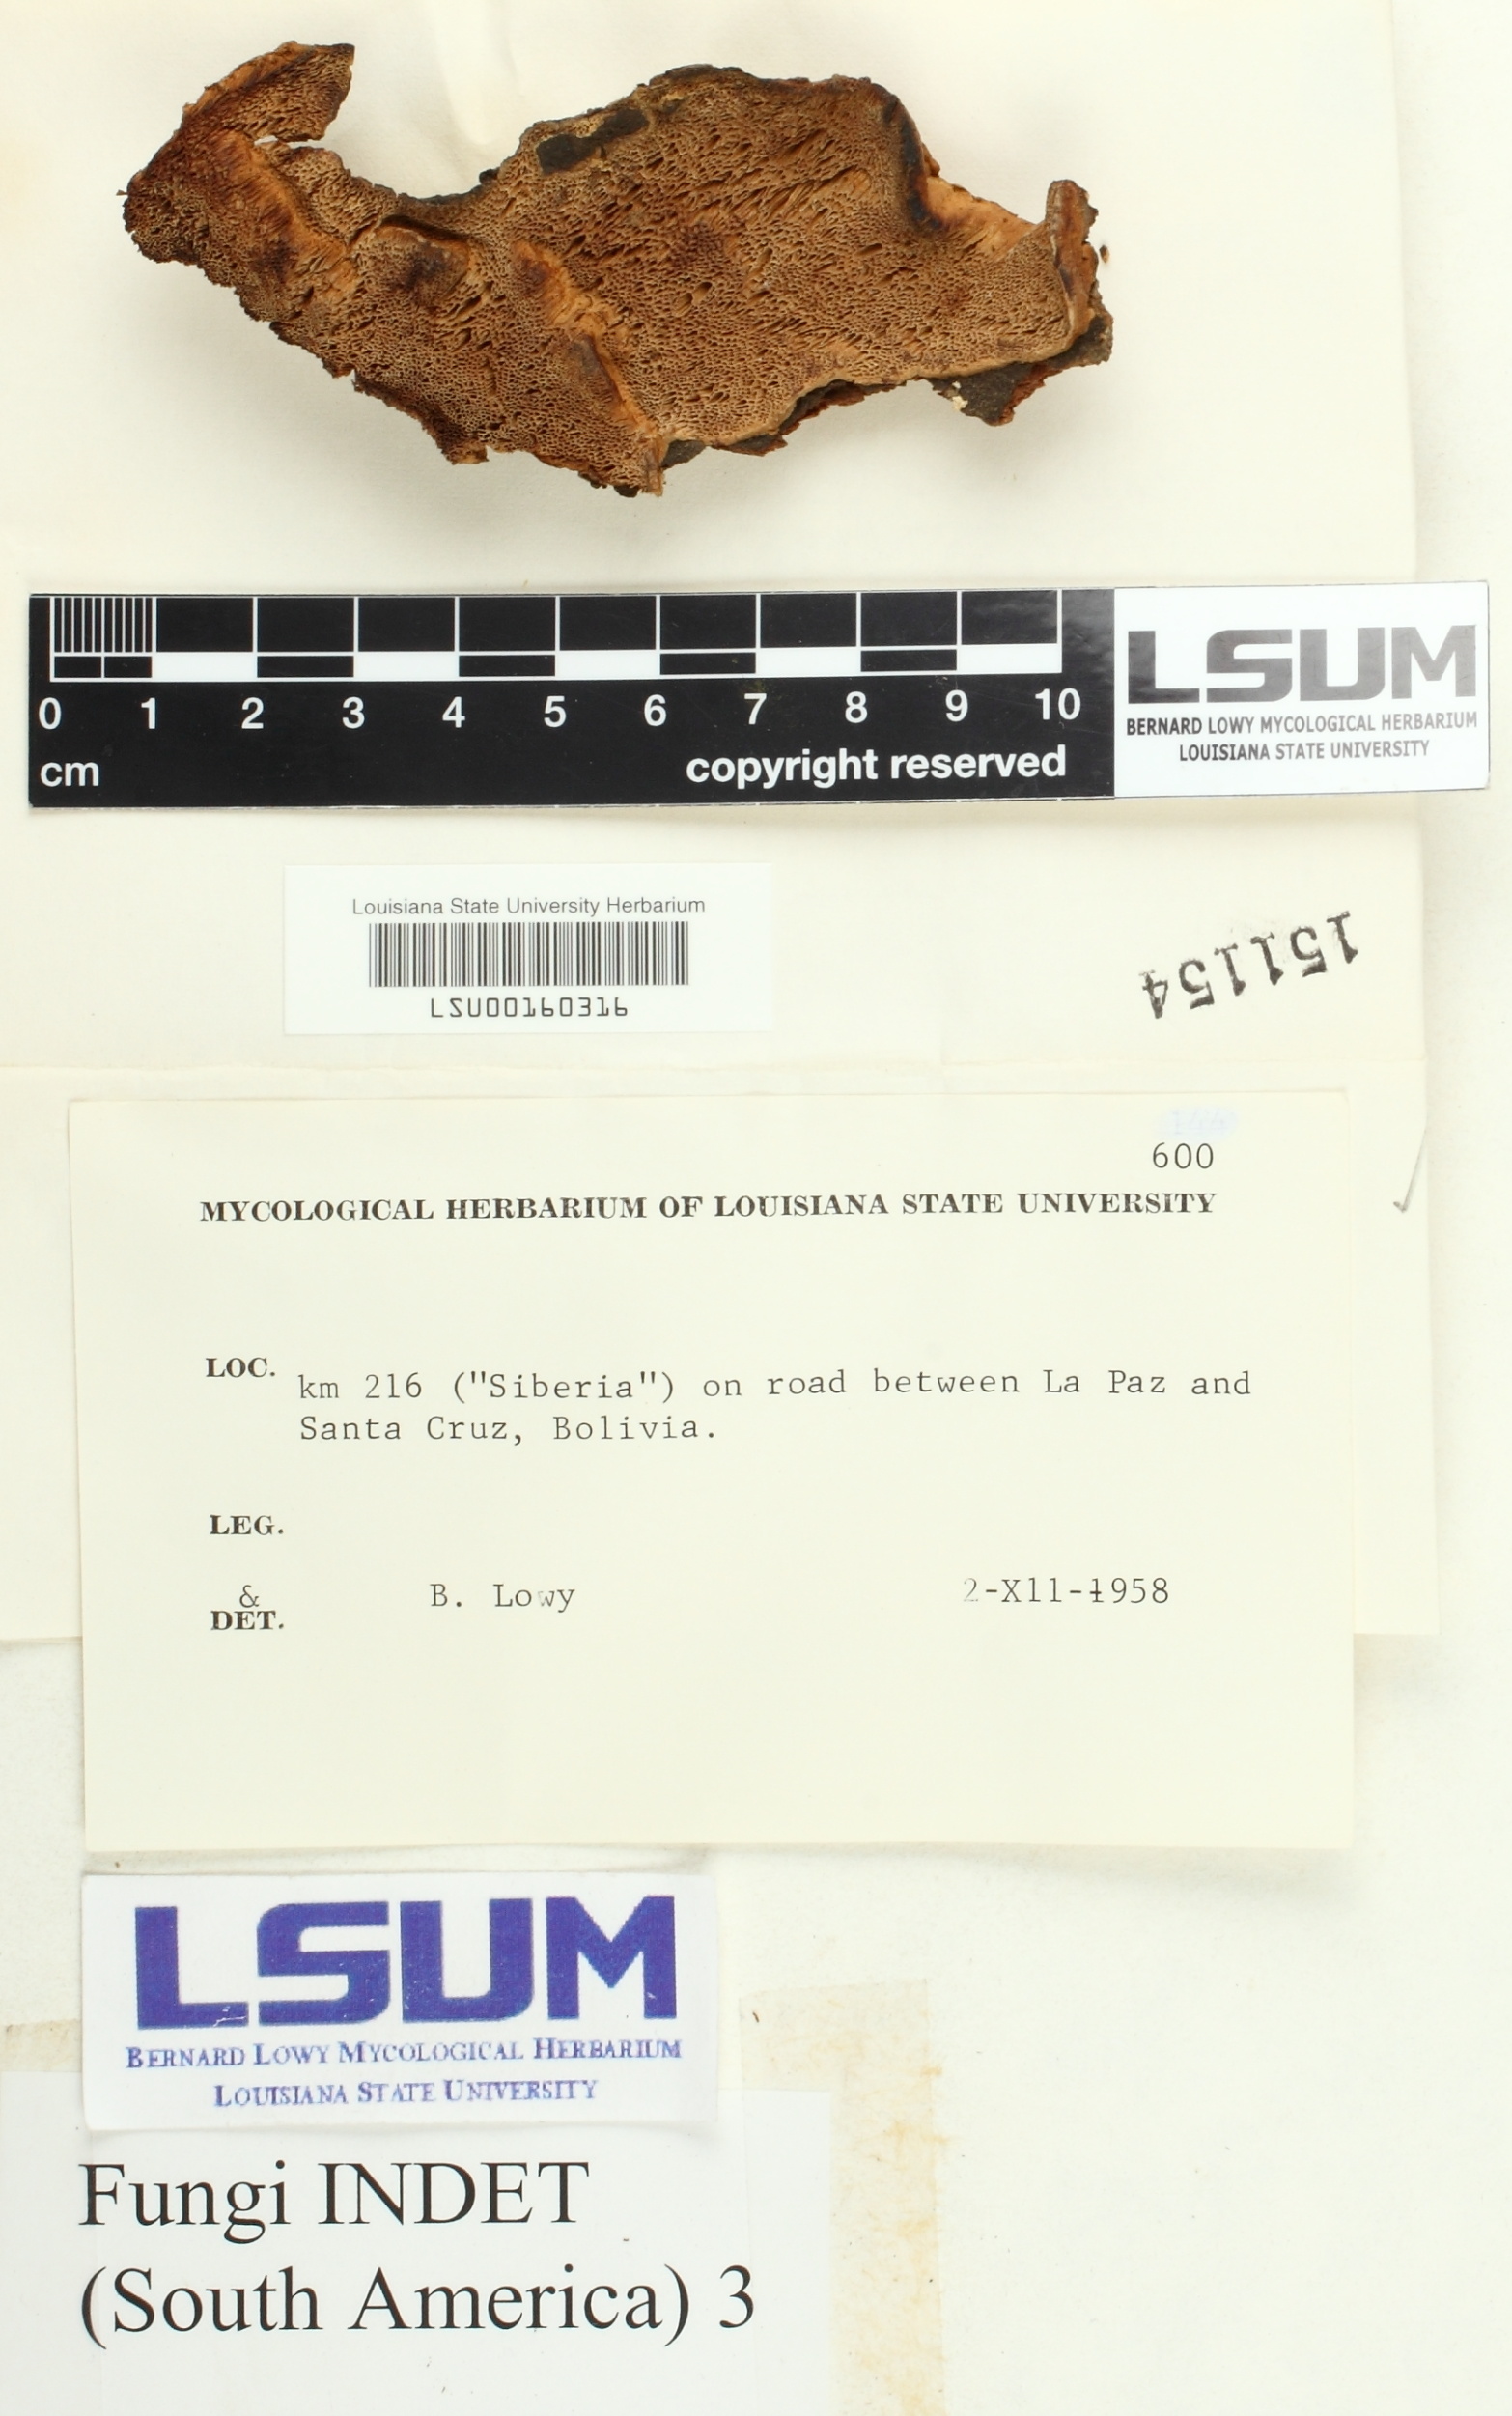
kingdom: Fungi
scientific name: Fungi
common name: Fungi
